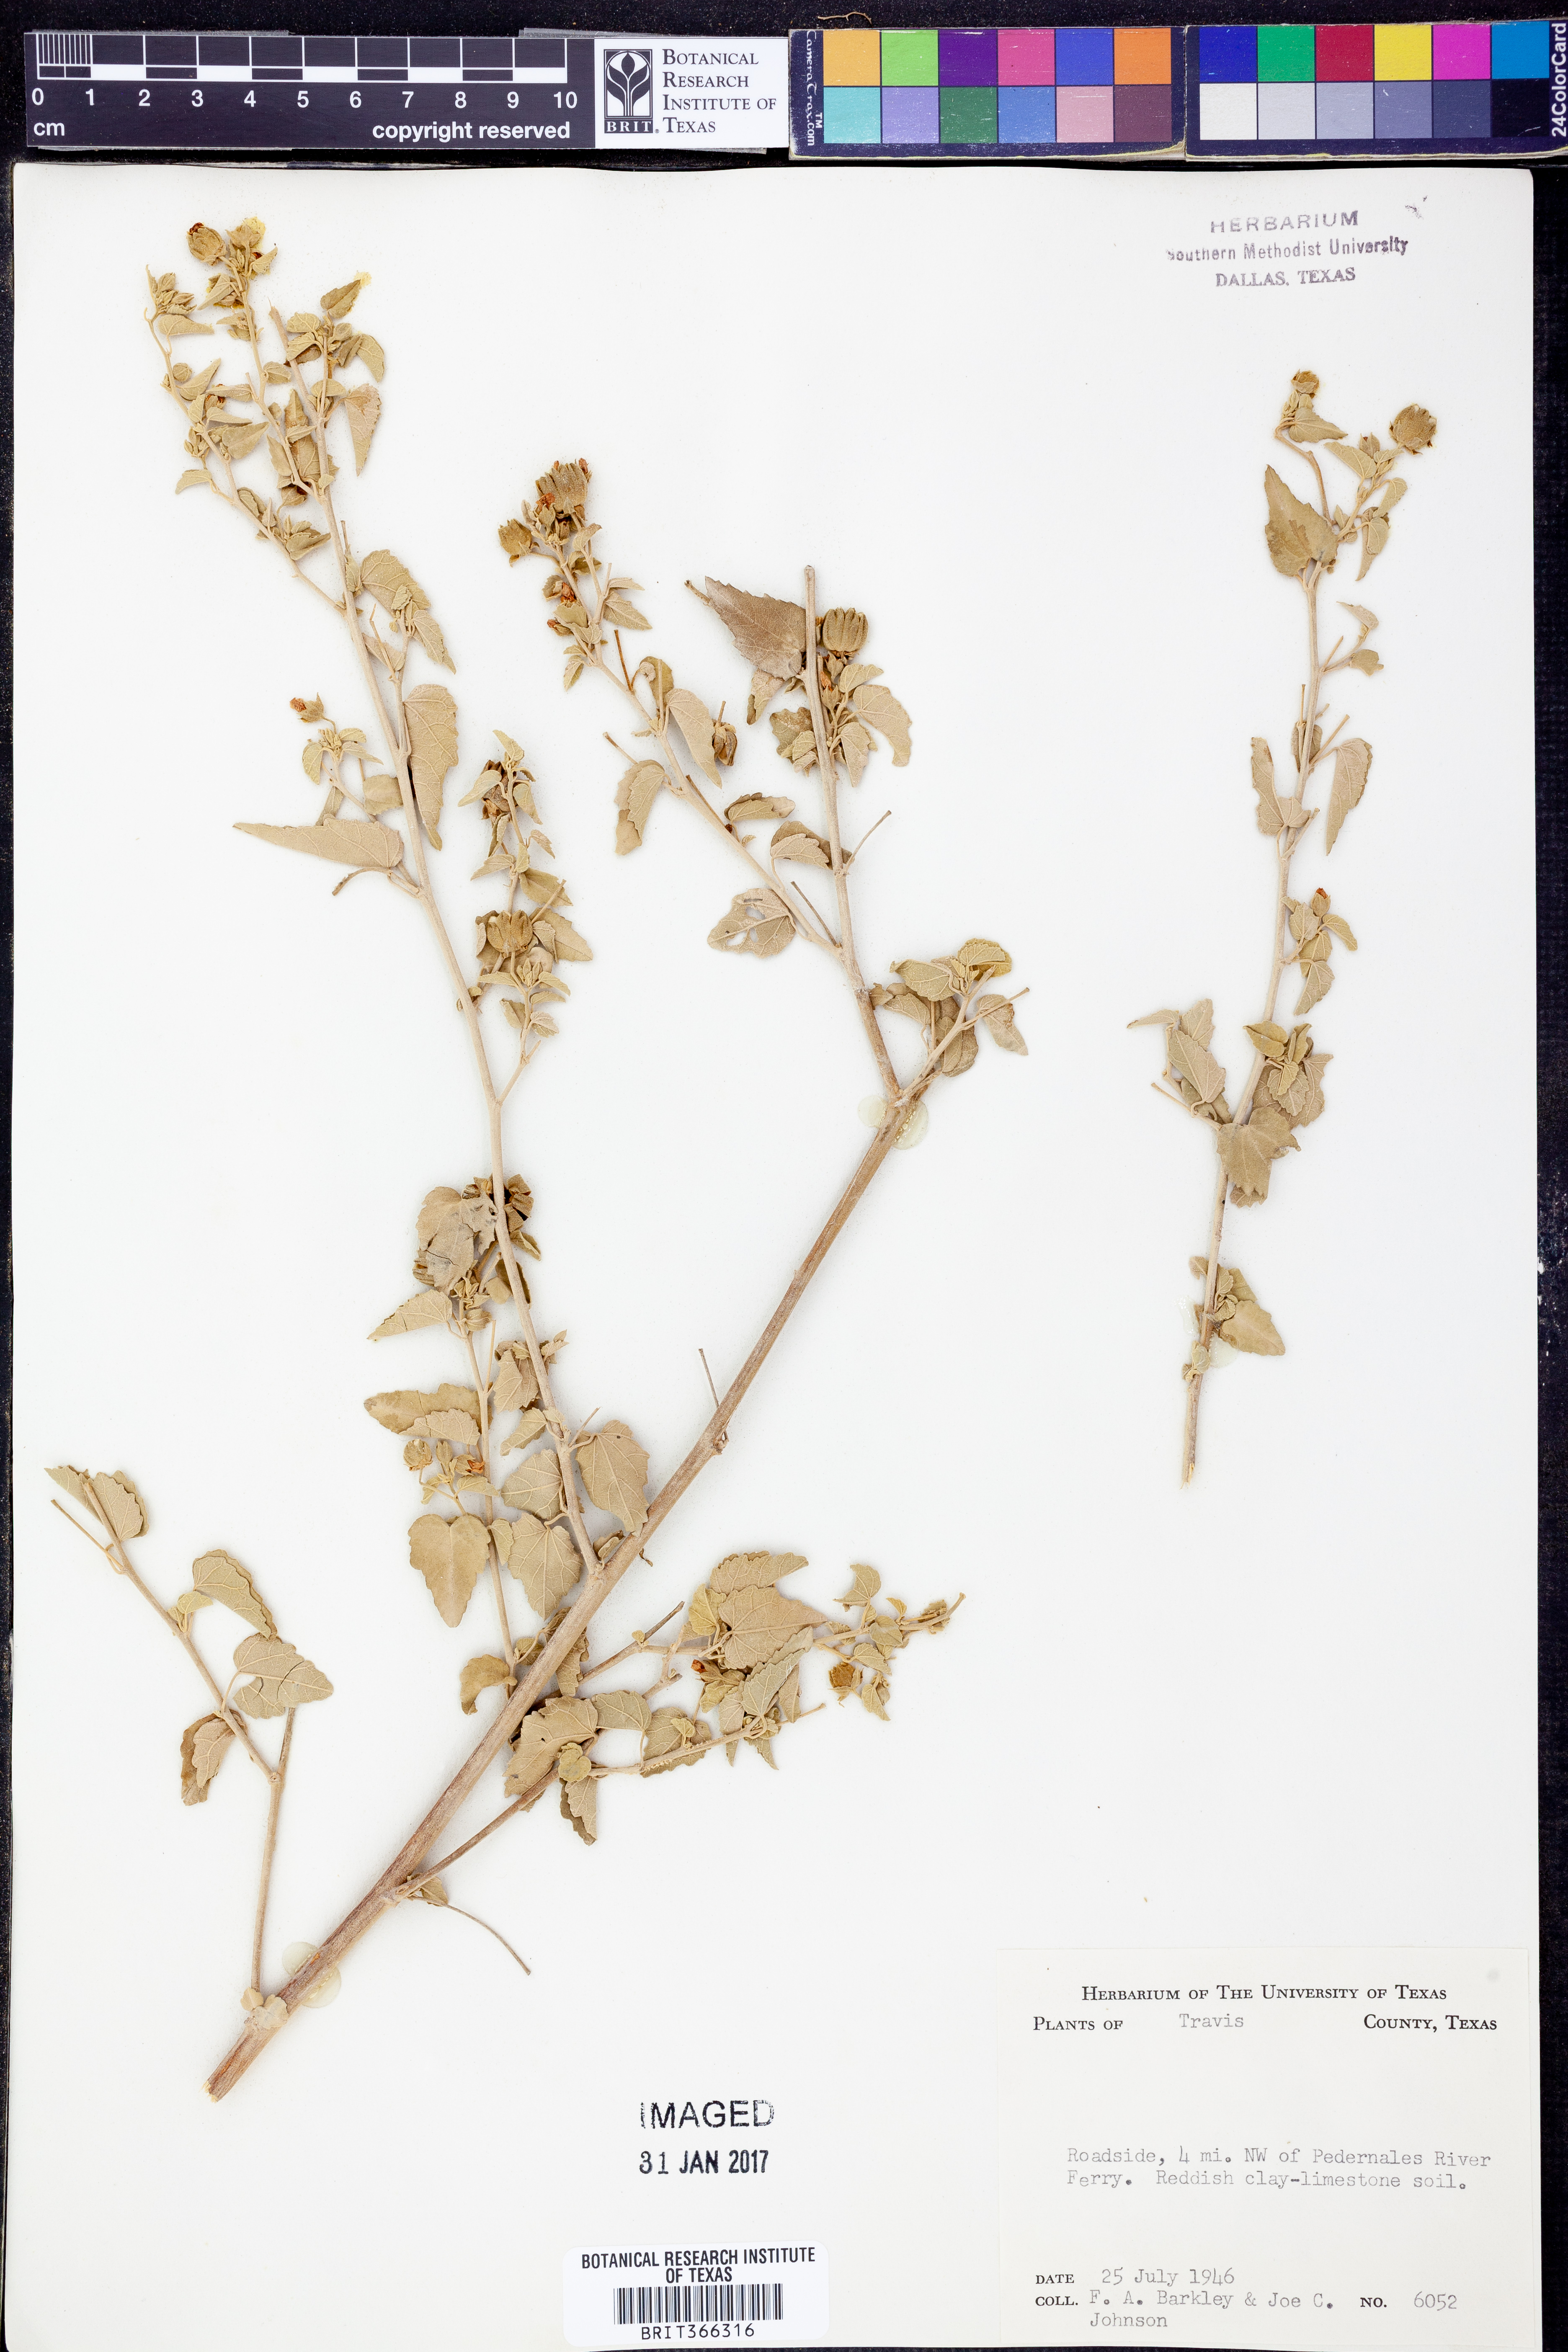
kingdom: Plantae
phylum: Tracheophyta
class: Magnoliopsida
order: Malvales
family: Malvaceae
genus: Abutilon
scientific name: Abutilon fruticosum
